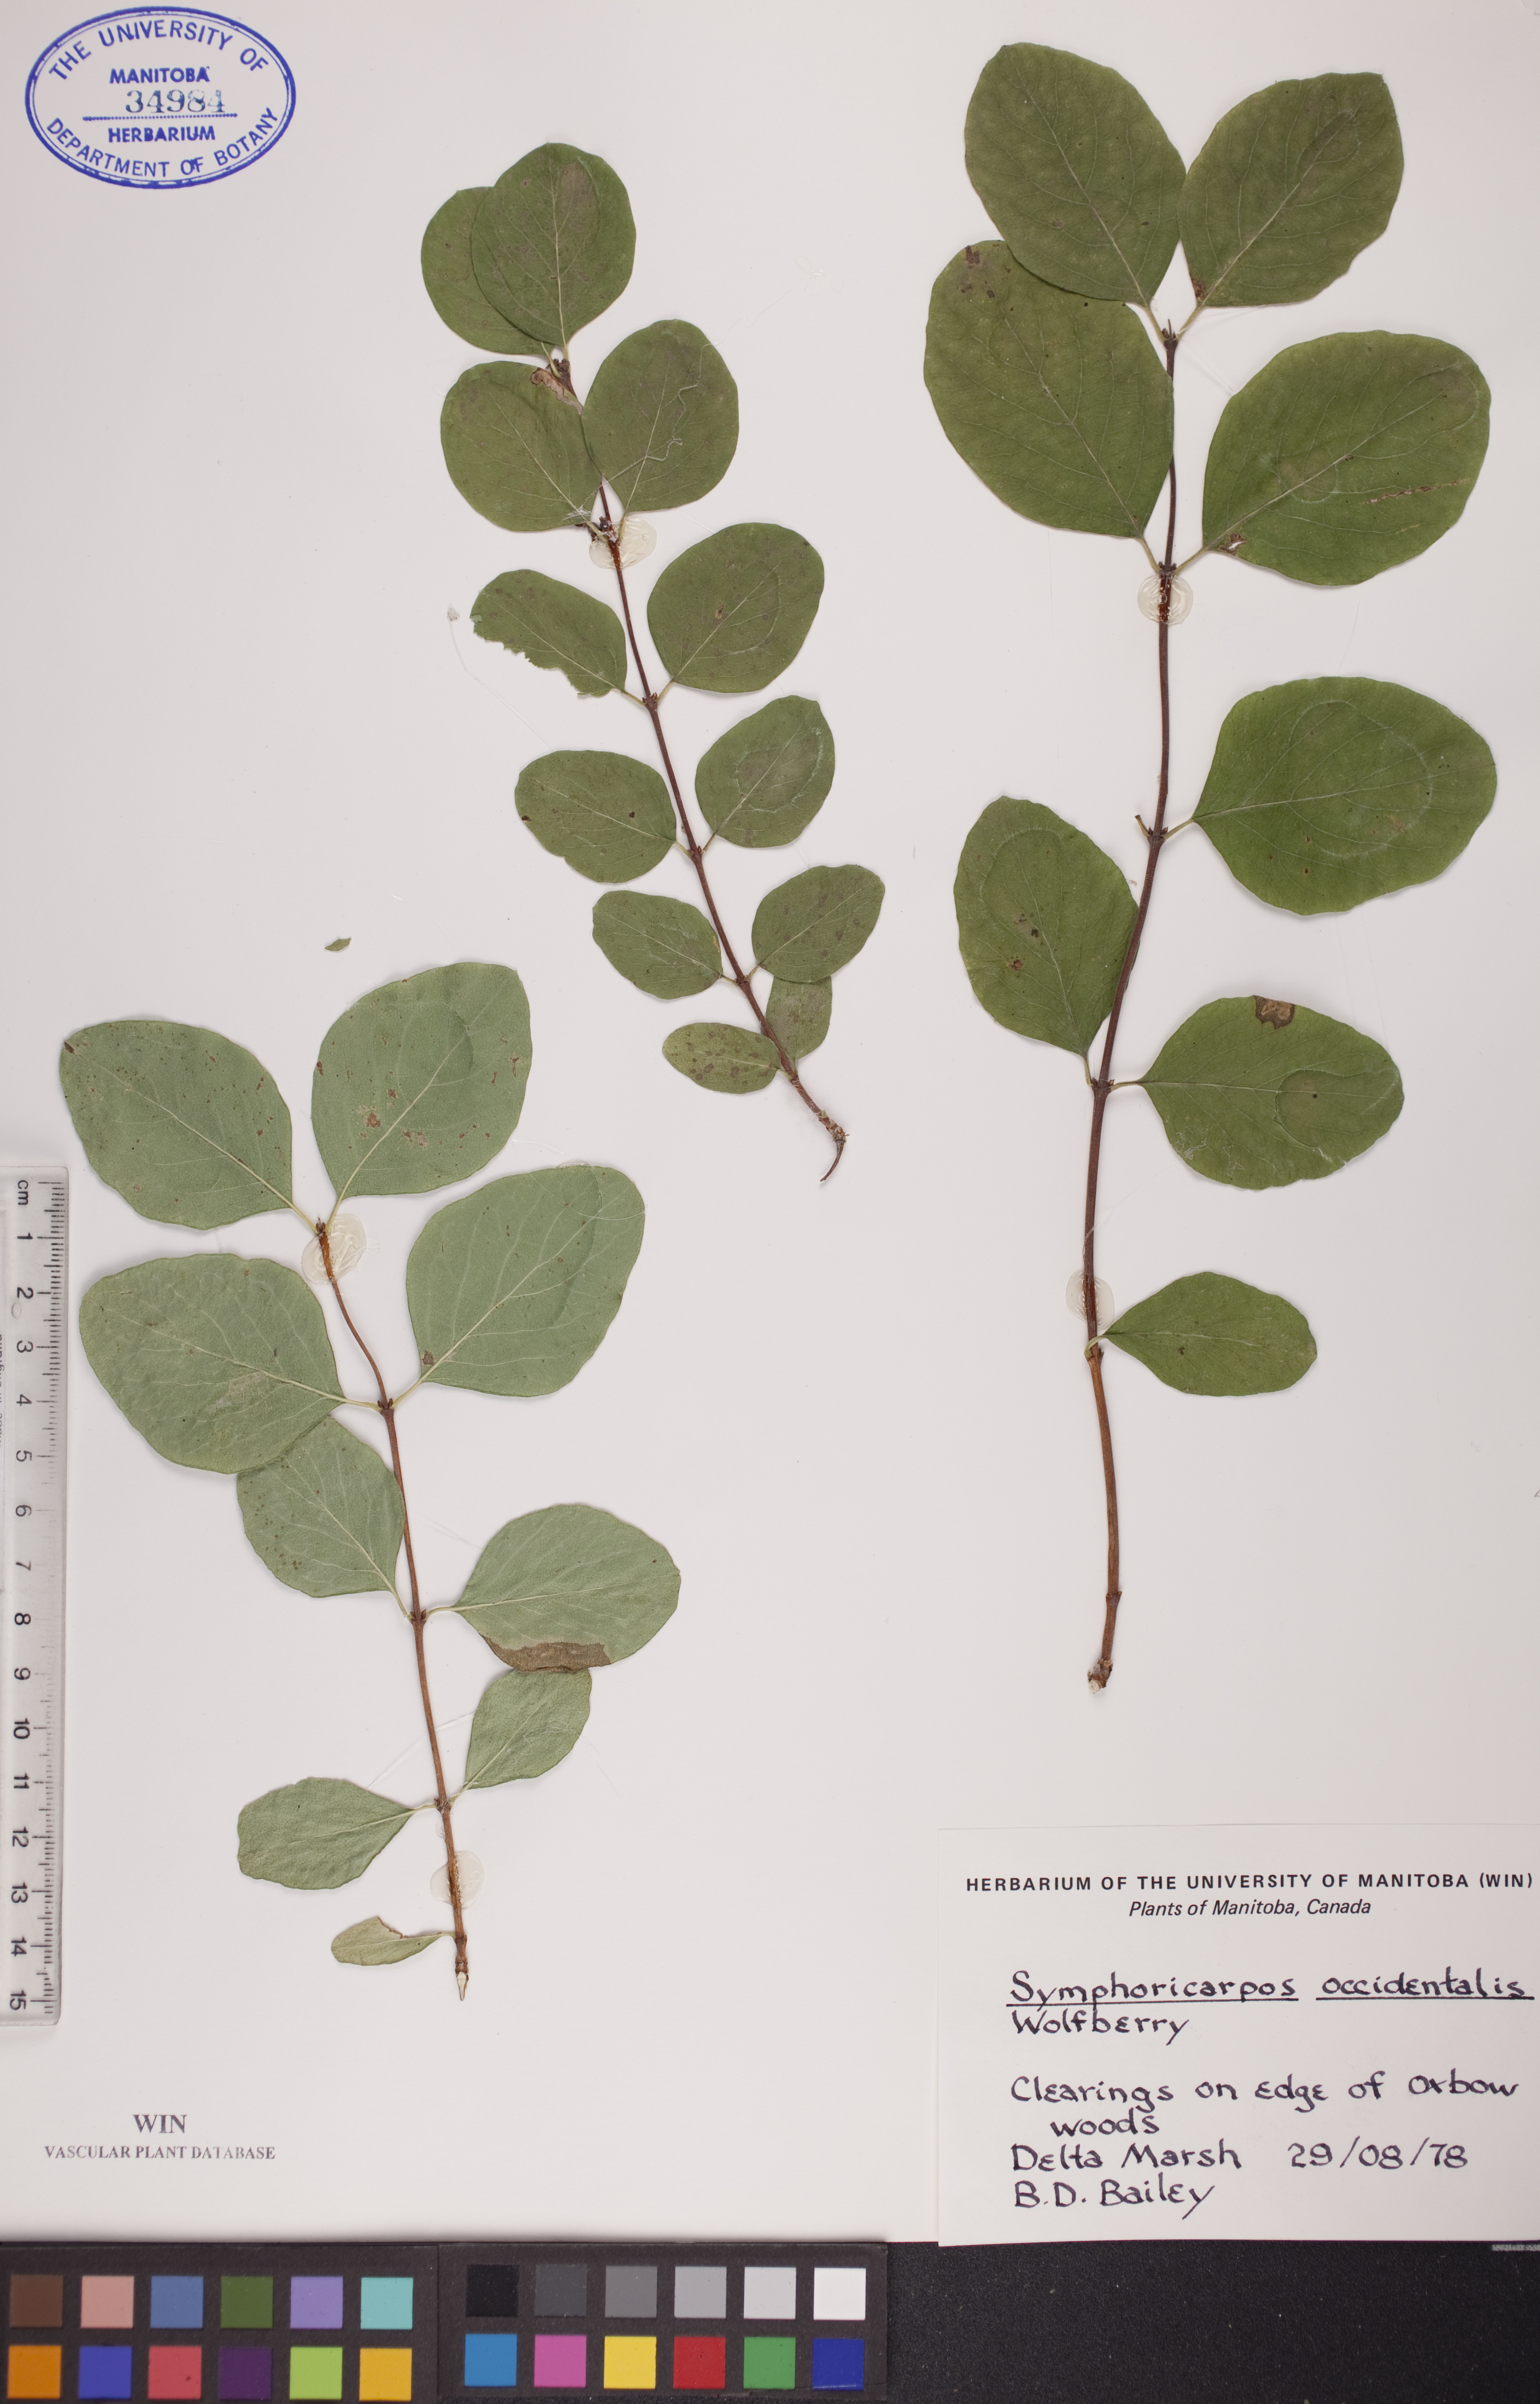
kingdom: Plantae
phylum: Tracheophyta
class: Magnoliopsida
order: Dipsacales
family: Caprifoliaceae
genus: Symphoricarpos
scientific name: Symphoricarpos occidentalis
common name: Wolfberry
